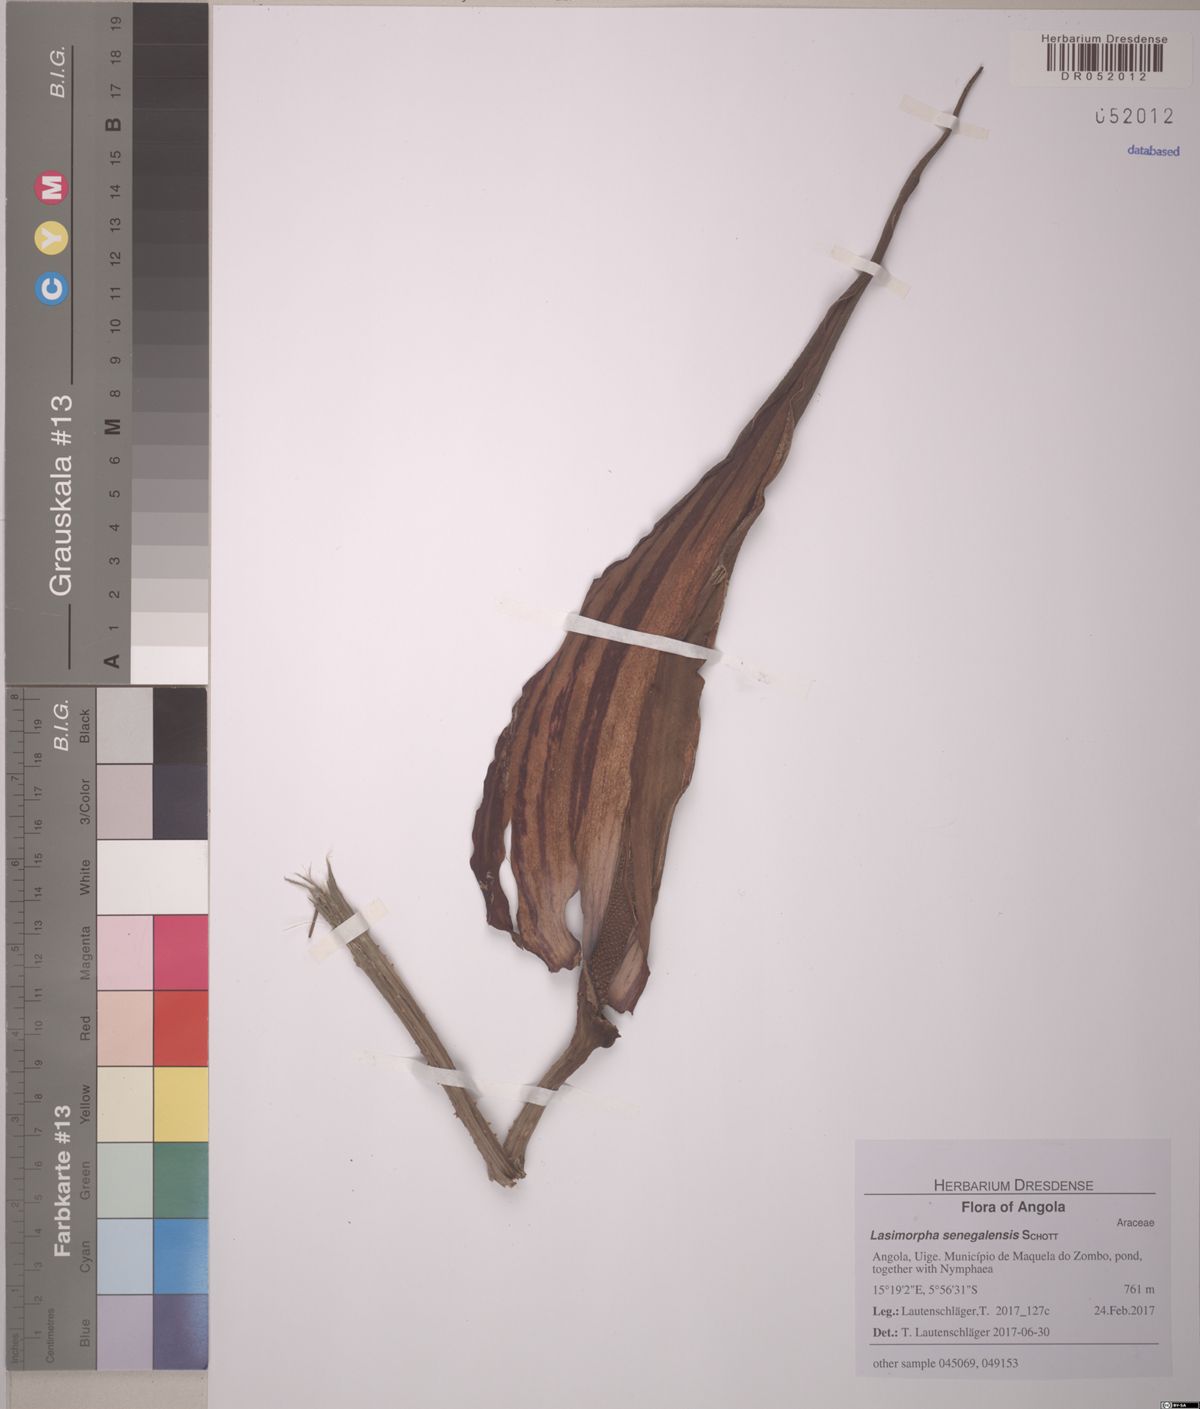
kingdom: Plantae
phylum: Tracheophyta
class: Liliopsida
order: Alismatales
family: Araceae
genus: Lasimorpha
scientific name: Lasimorpha senegalensis
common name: Swamp arum
